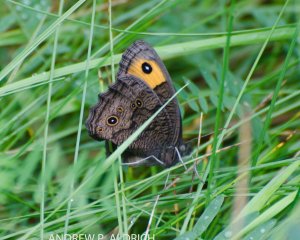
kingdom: Animalia
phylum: Arthropoda
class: Insecta
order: Lepidoptera
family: Nymphalidae
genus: Cercyonis
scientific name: Cercyonis pegala
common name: Common Wood-Nymph
